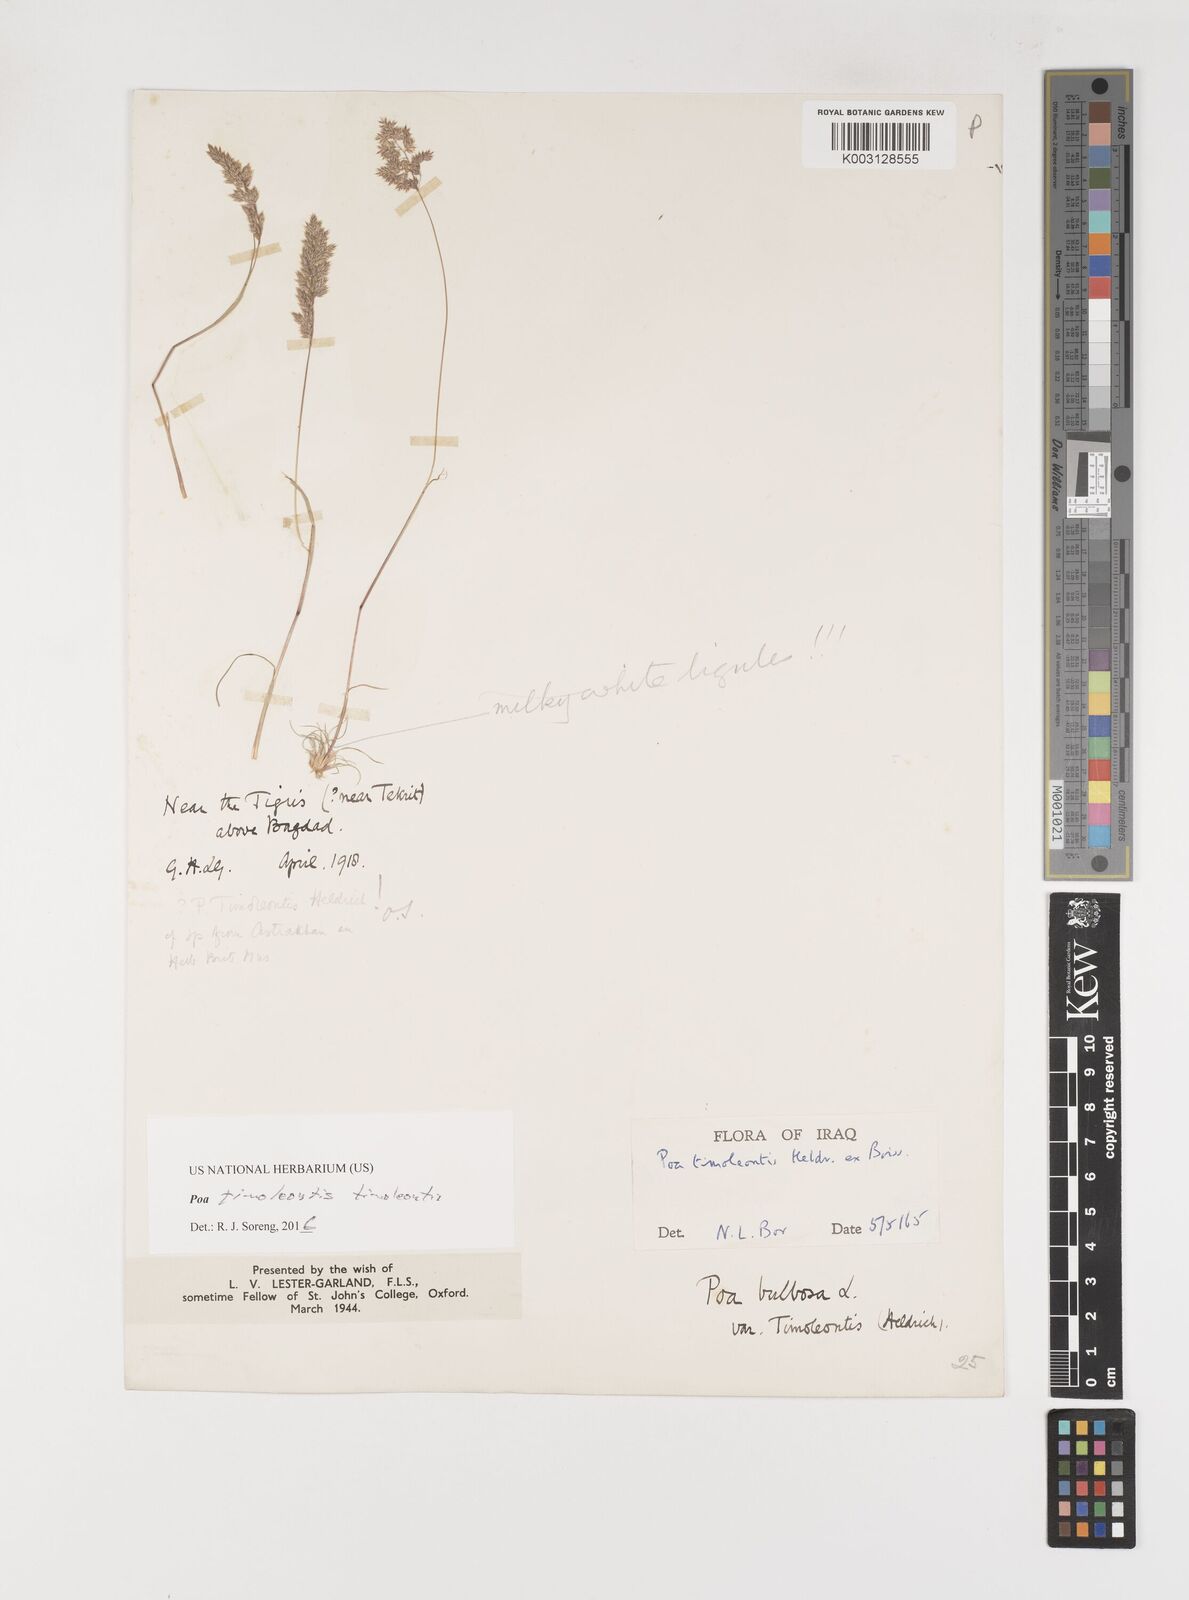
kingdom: Plantae
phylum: Tracheophyta
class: Liliopsida
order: Poales
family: Poaceae
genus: Poa
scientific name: Poa timoleontis
